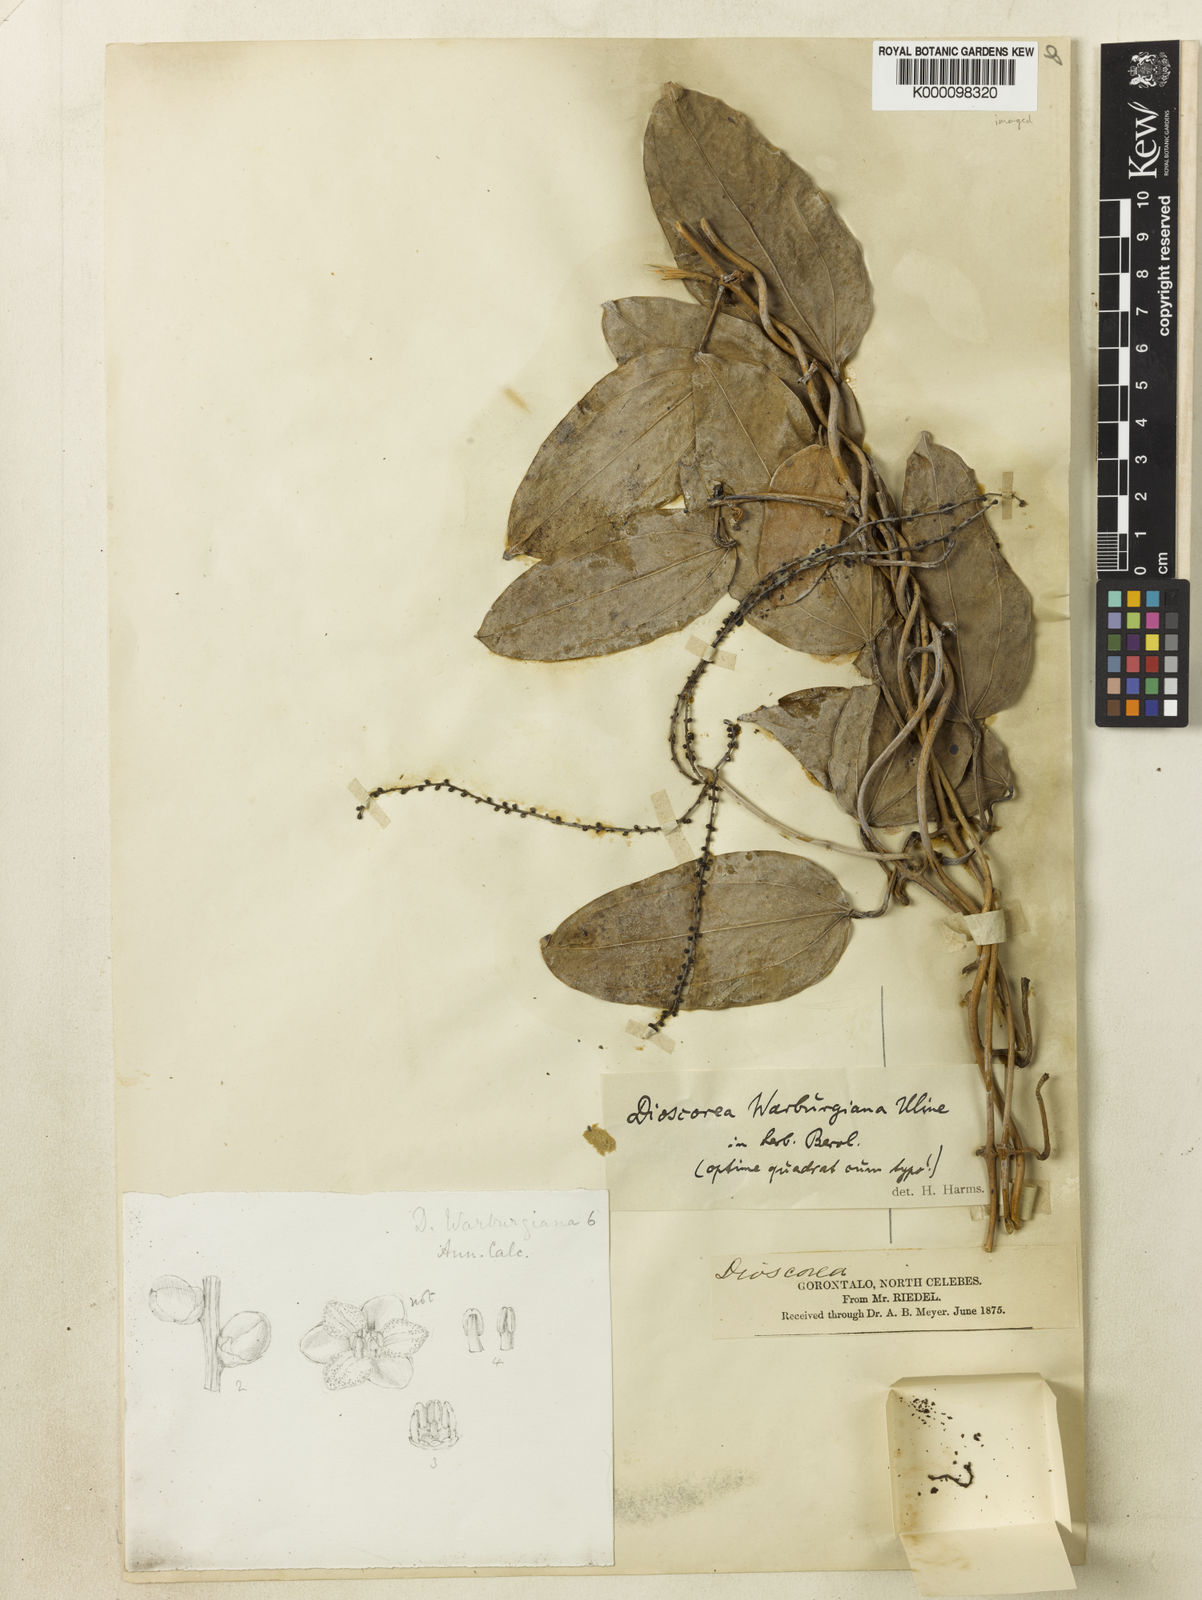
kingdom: Plantae
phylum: Tracheophyta
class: Liliopsida
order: Dioscoreales
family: Dioscoreaceae
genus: Dioscorea
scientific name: Dioscorea
